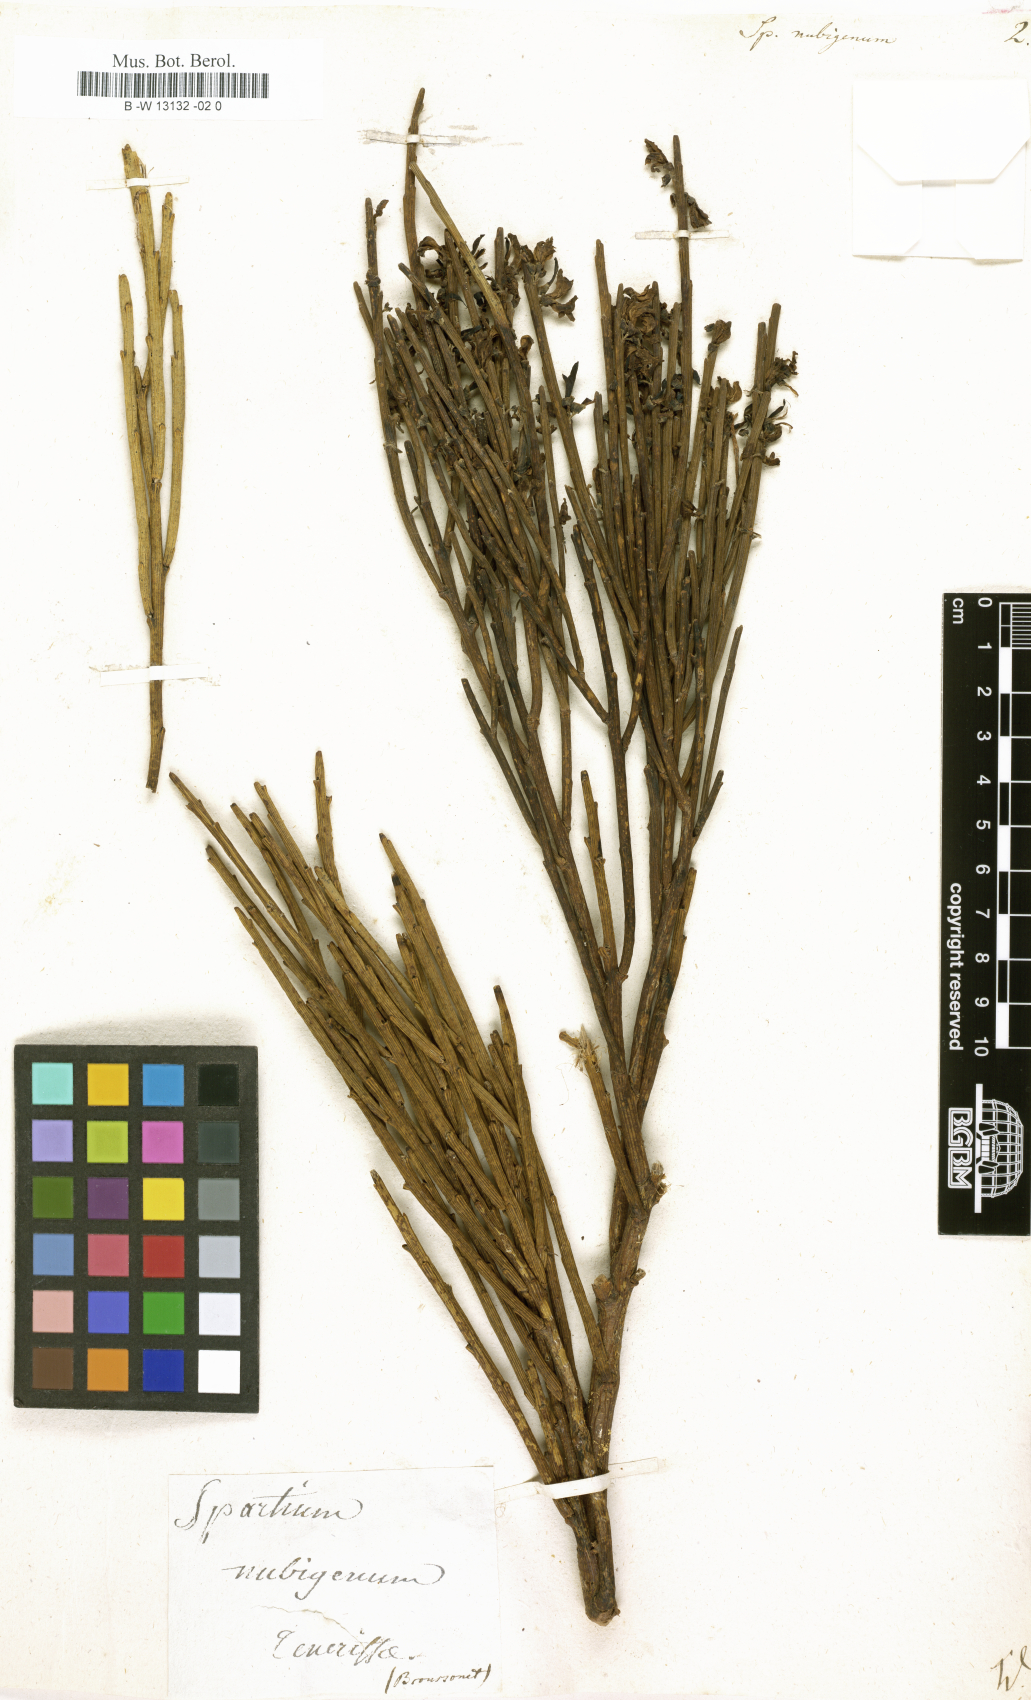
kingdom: Plantae
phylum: Tracheophyta
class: Magnoliopsida
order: Fabales
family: Fabaceae
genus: Cytisus
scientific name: Cytisus supranubius
